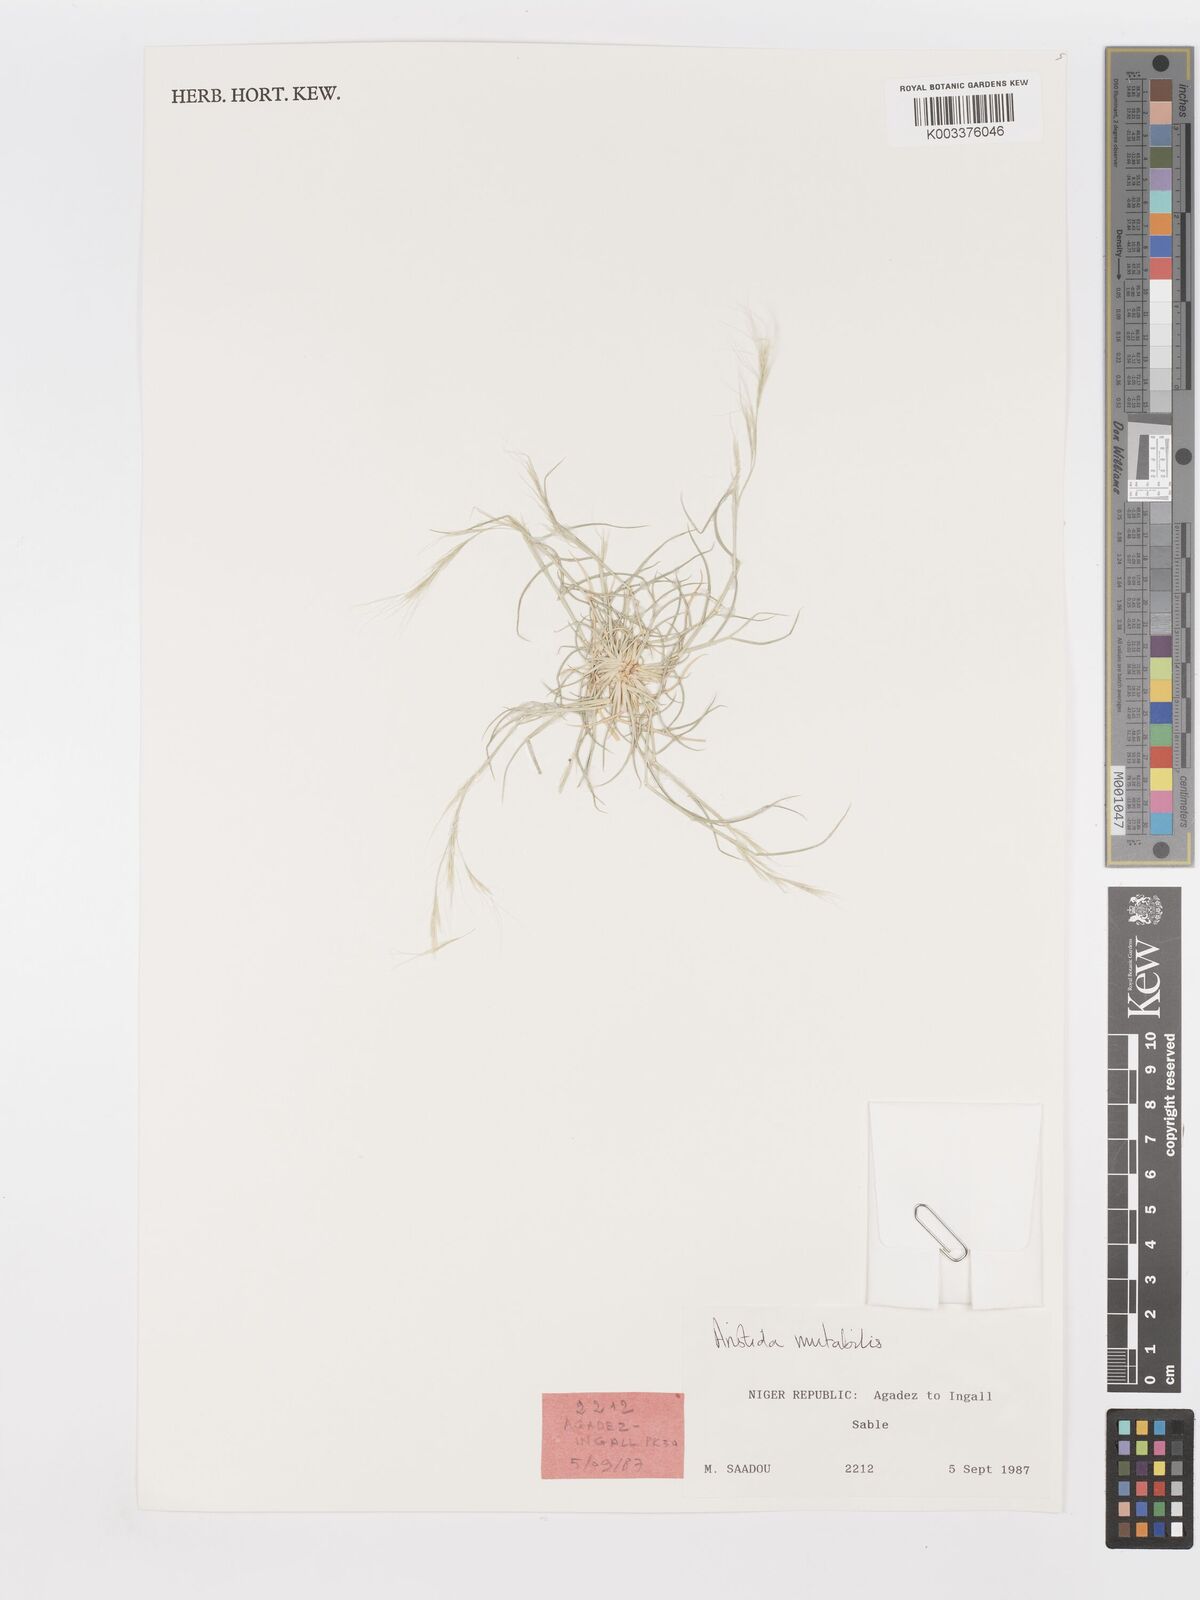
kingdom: Plantae
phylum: Tracheophyta
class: Liliopsida
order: Poales
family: Poaceae
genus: Aristida
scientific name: Aristida mutabilis
